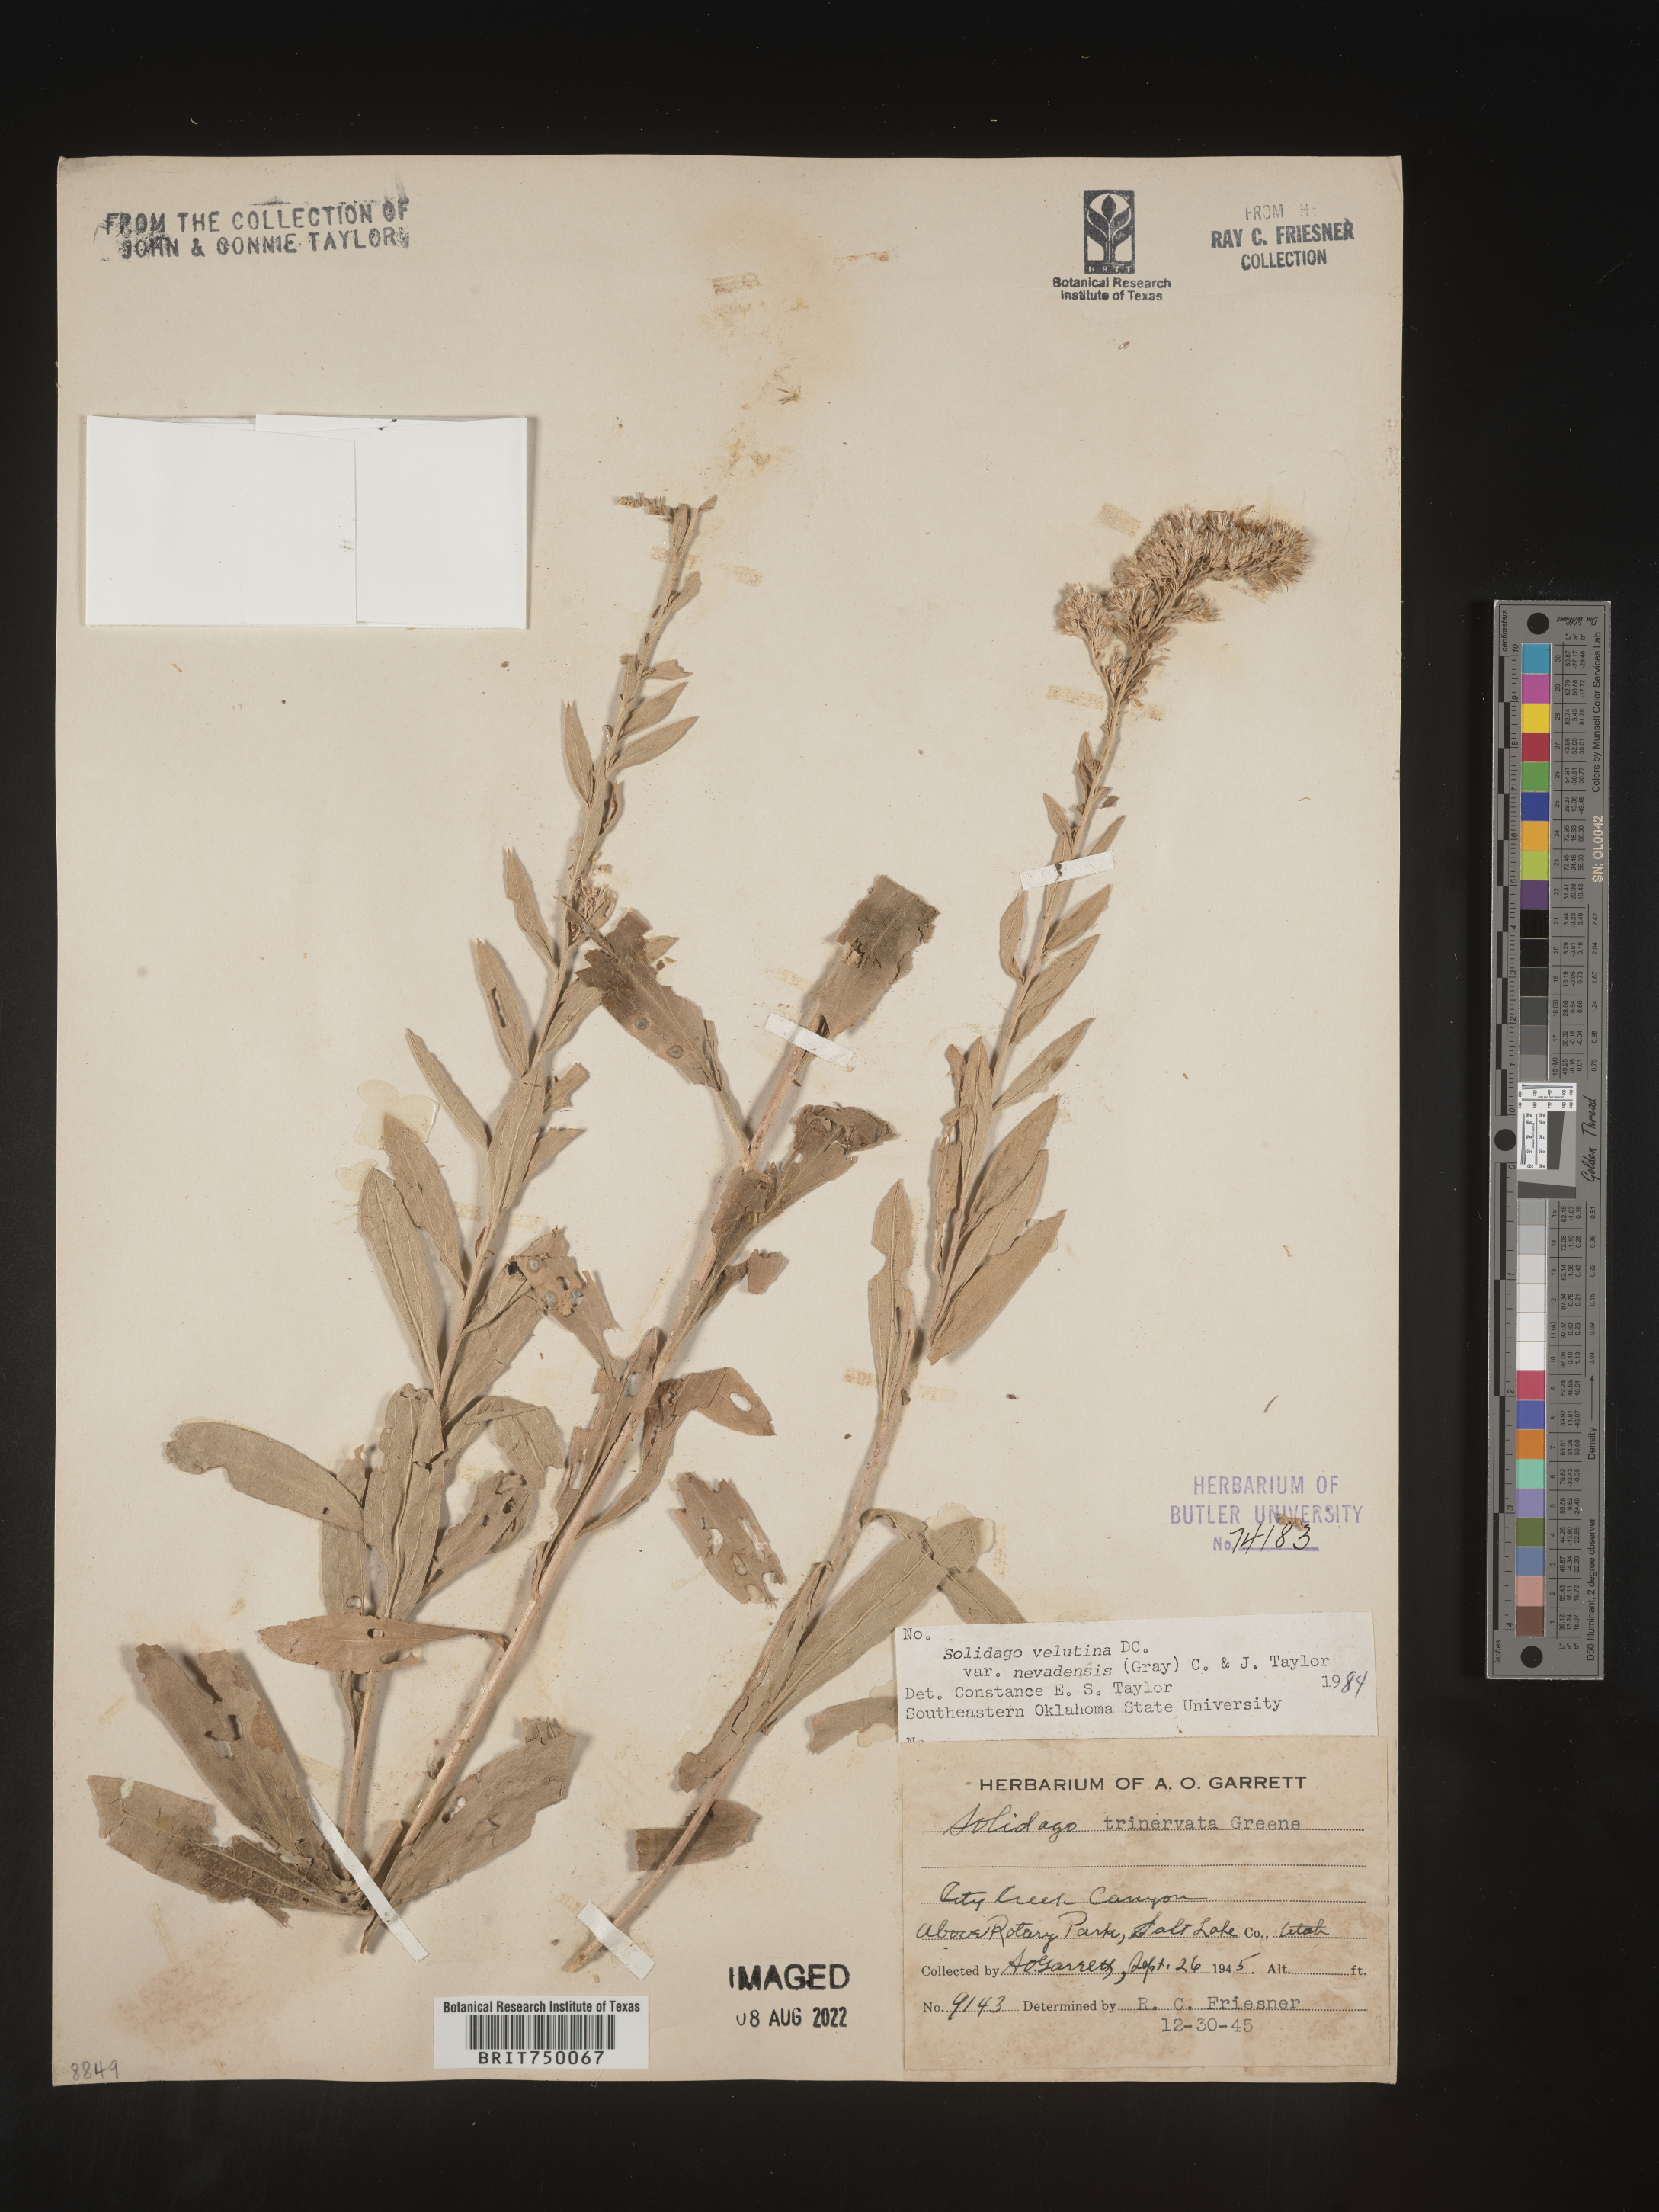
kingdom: Plantae
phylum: Tracheophyta
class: Magnoliopsida
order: Asterales
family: Asteraceae
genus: Solidago
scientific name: Solidago garrettii
